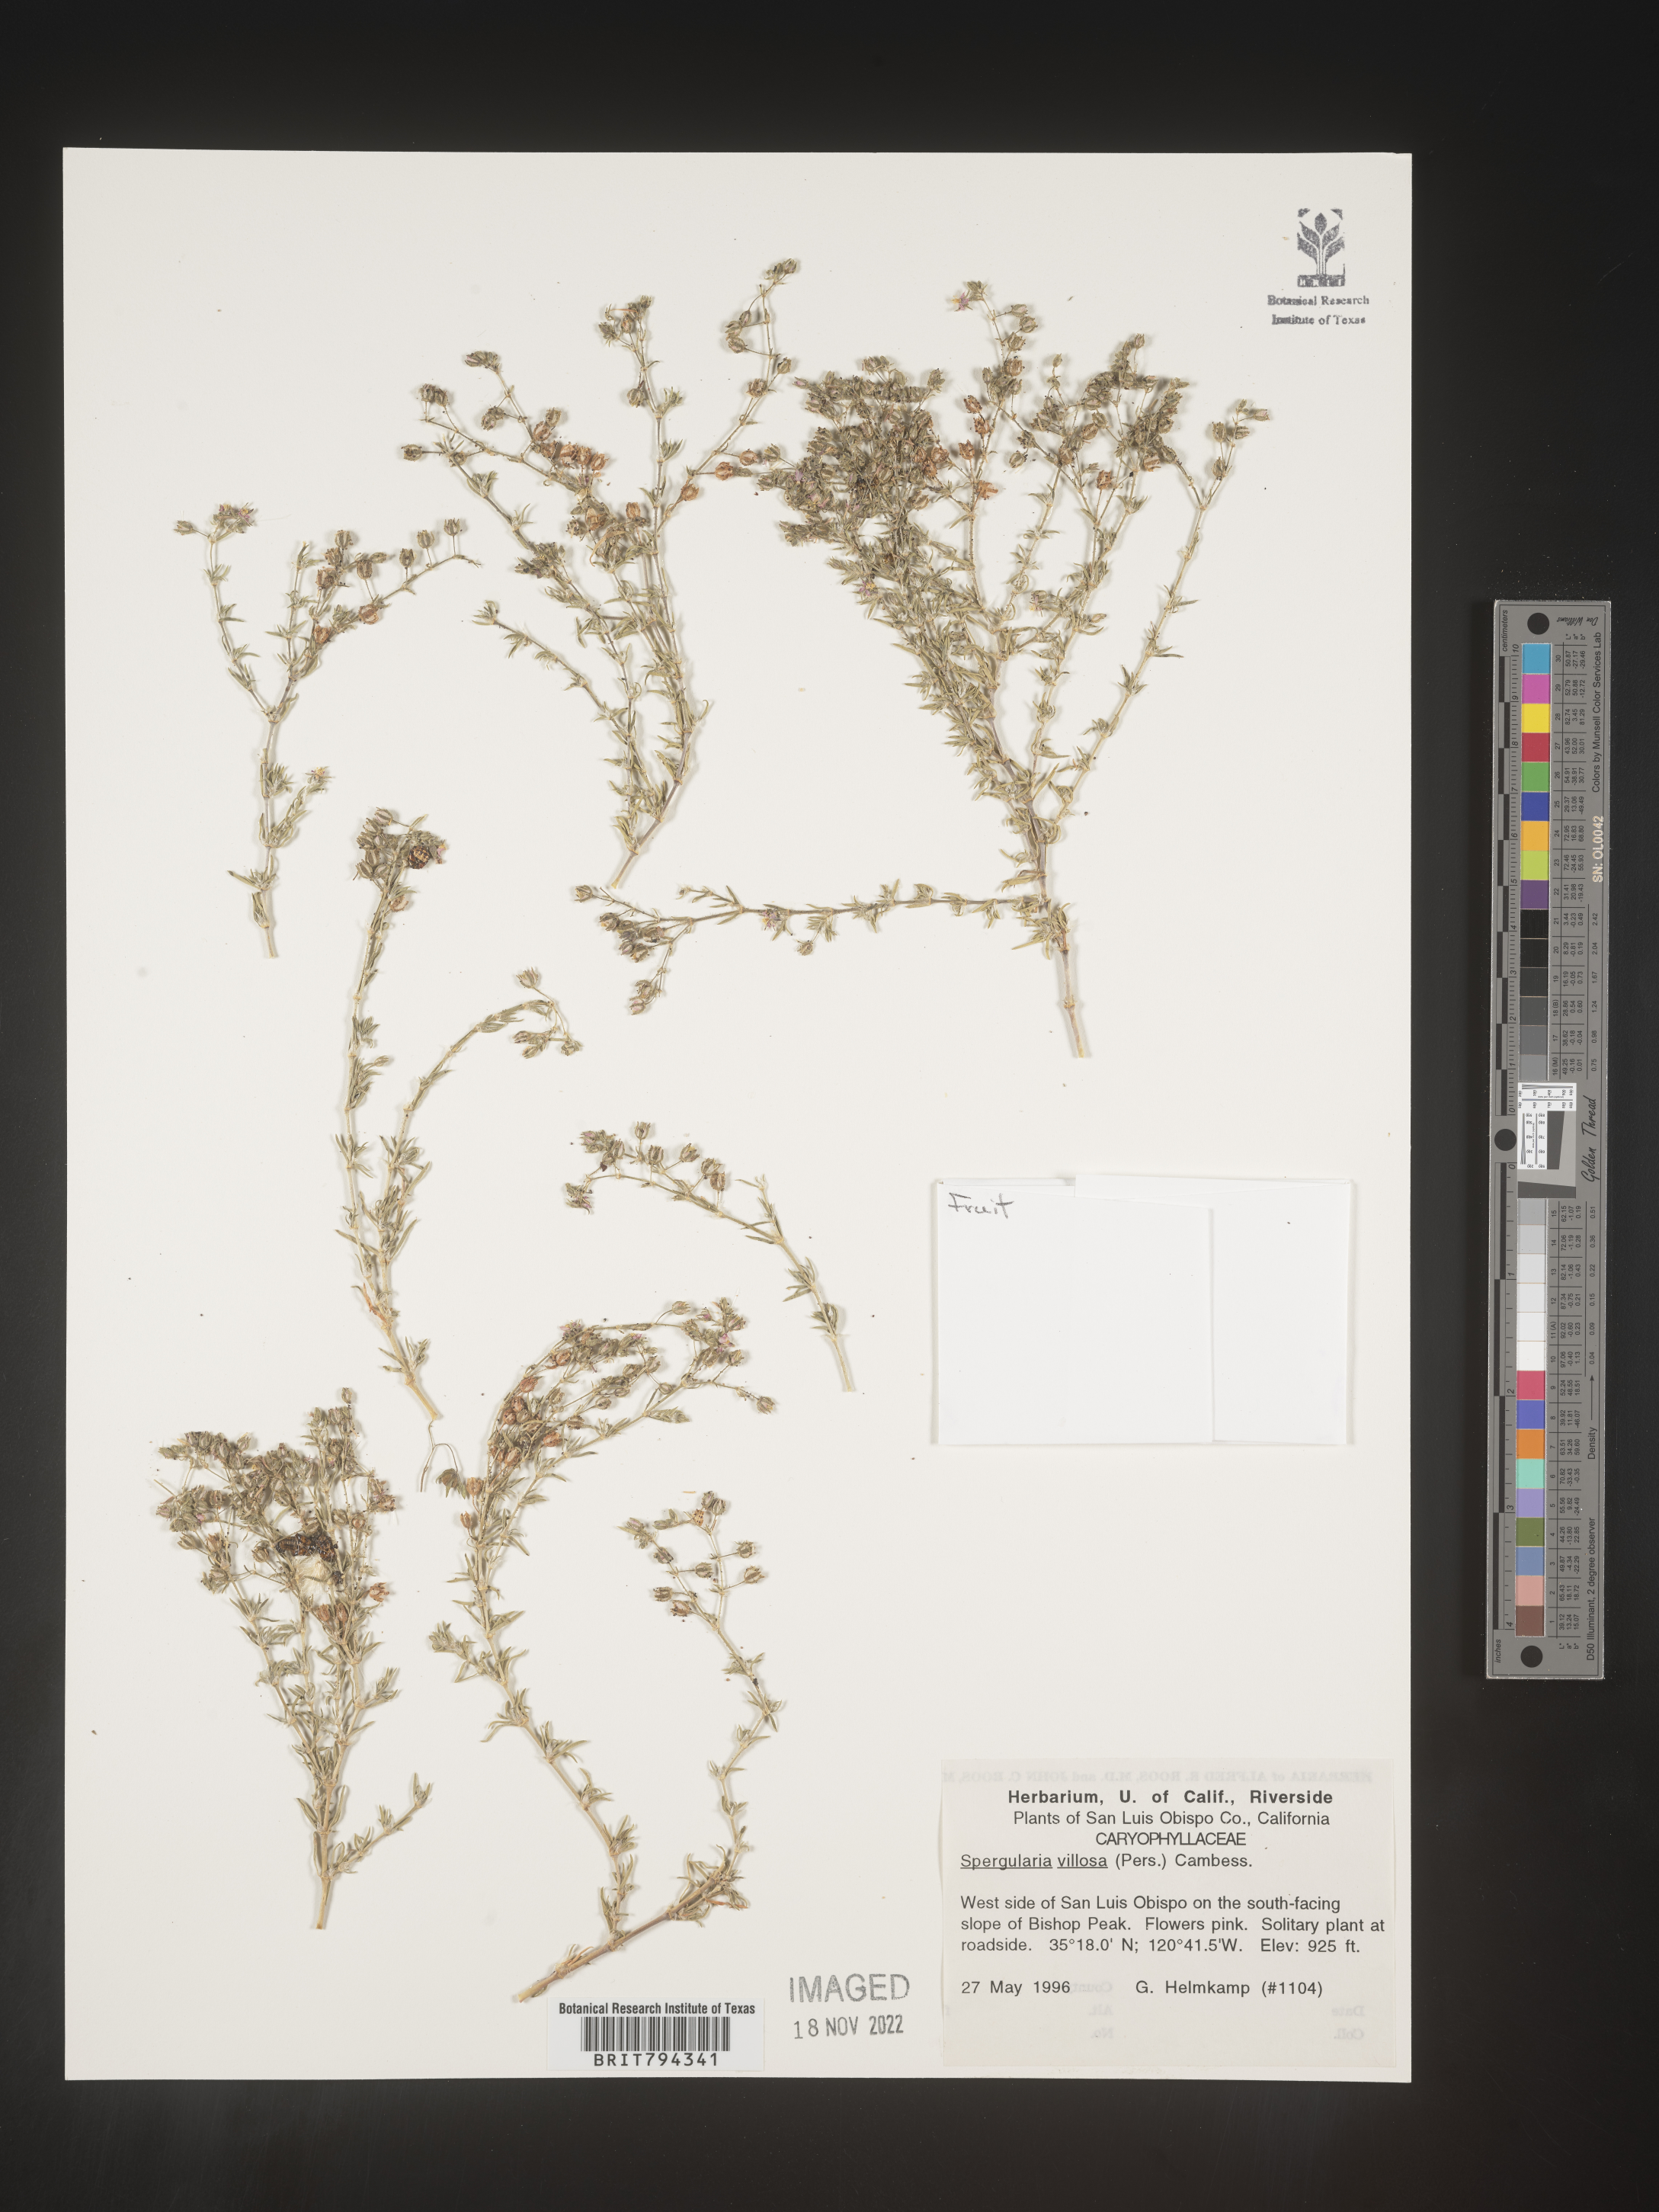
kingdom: Plantae
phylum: Tracheophyta
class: Magnoliopsida
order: Caryophyllales
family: Caryophyllaceae
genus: Spergularia
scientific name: Spergularia villosa
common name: Hairy sandspurry
